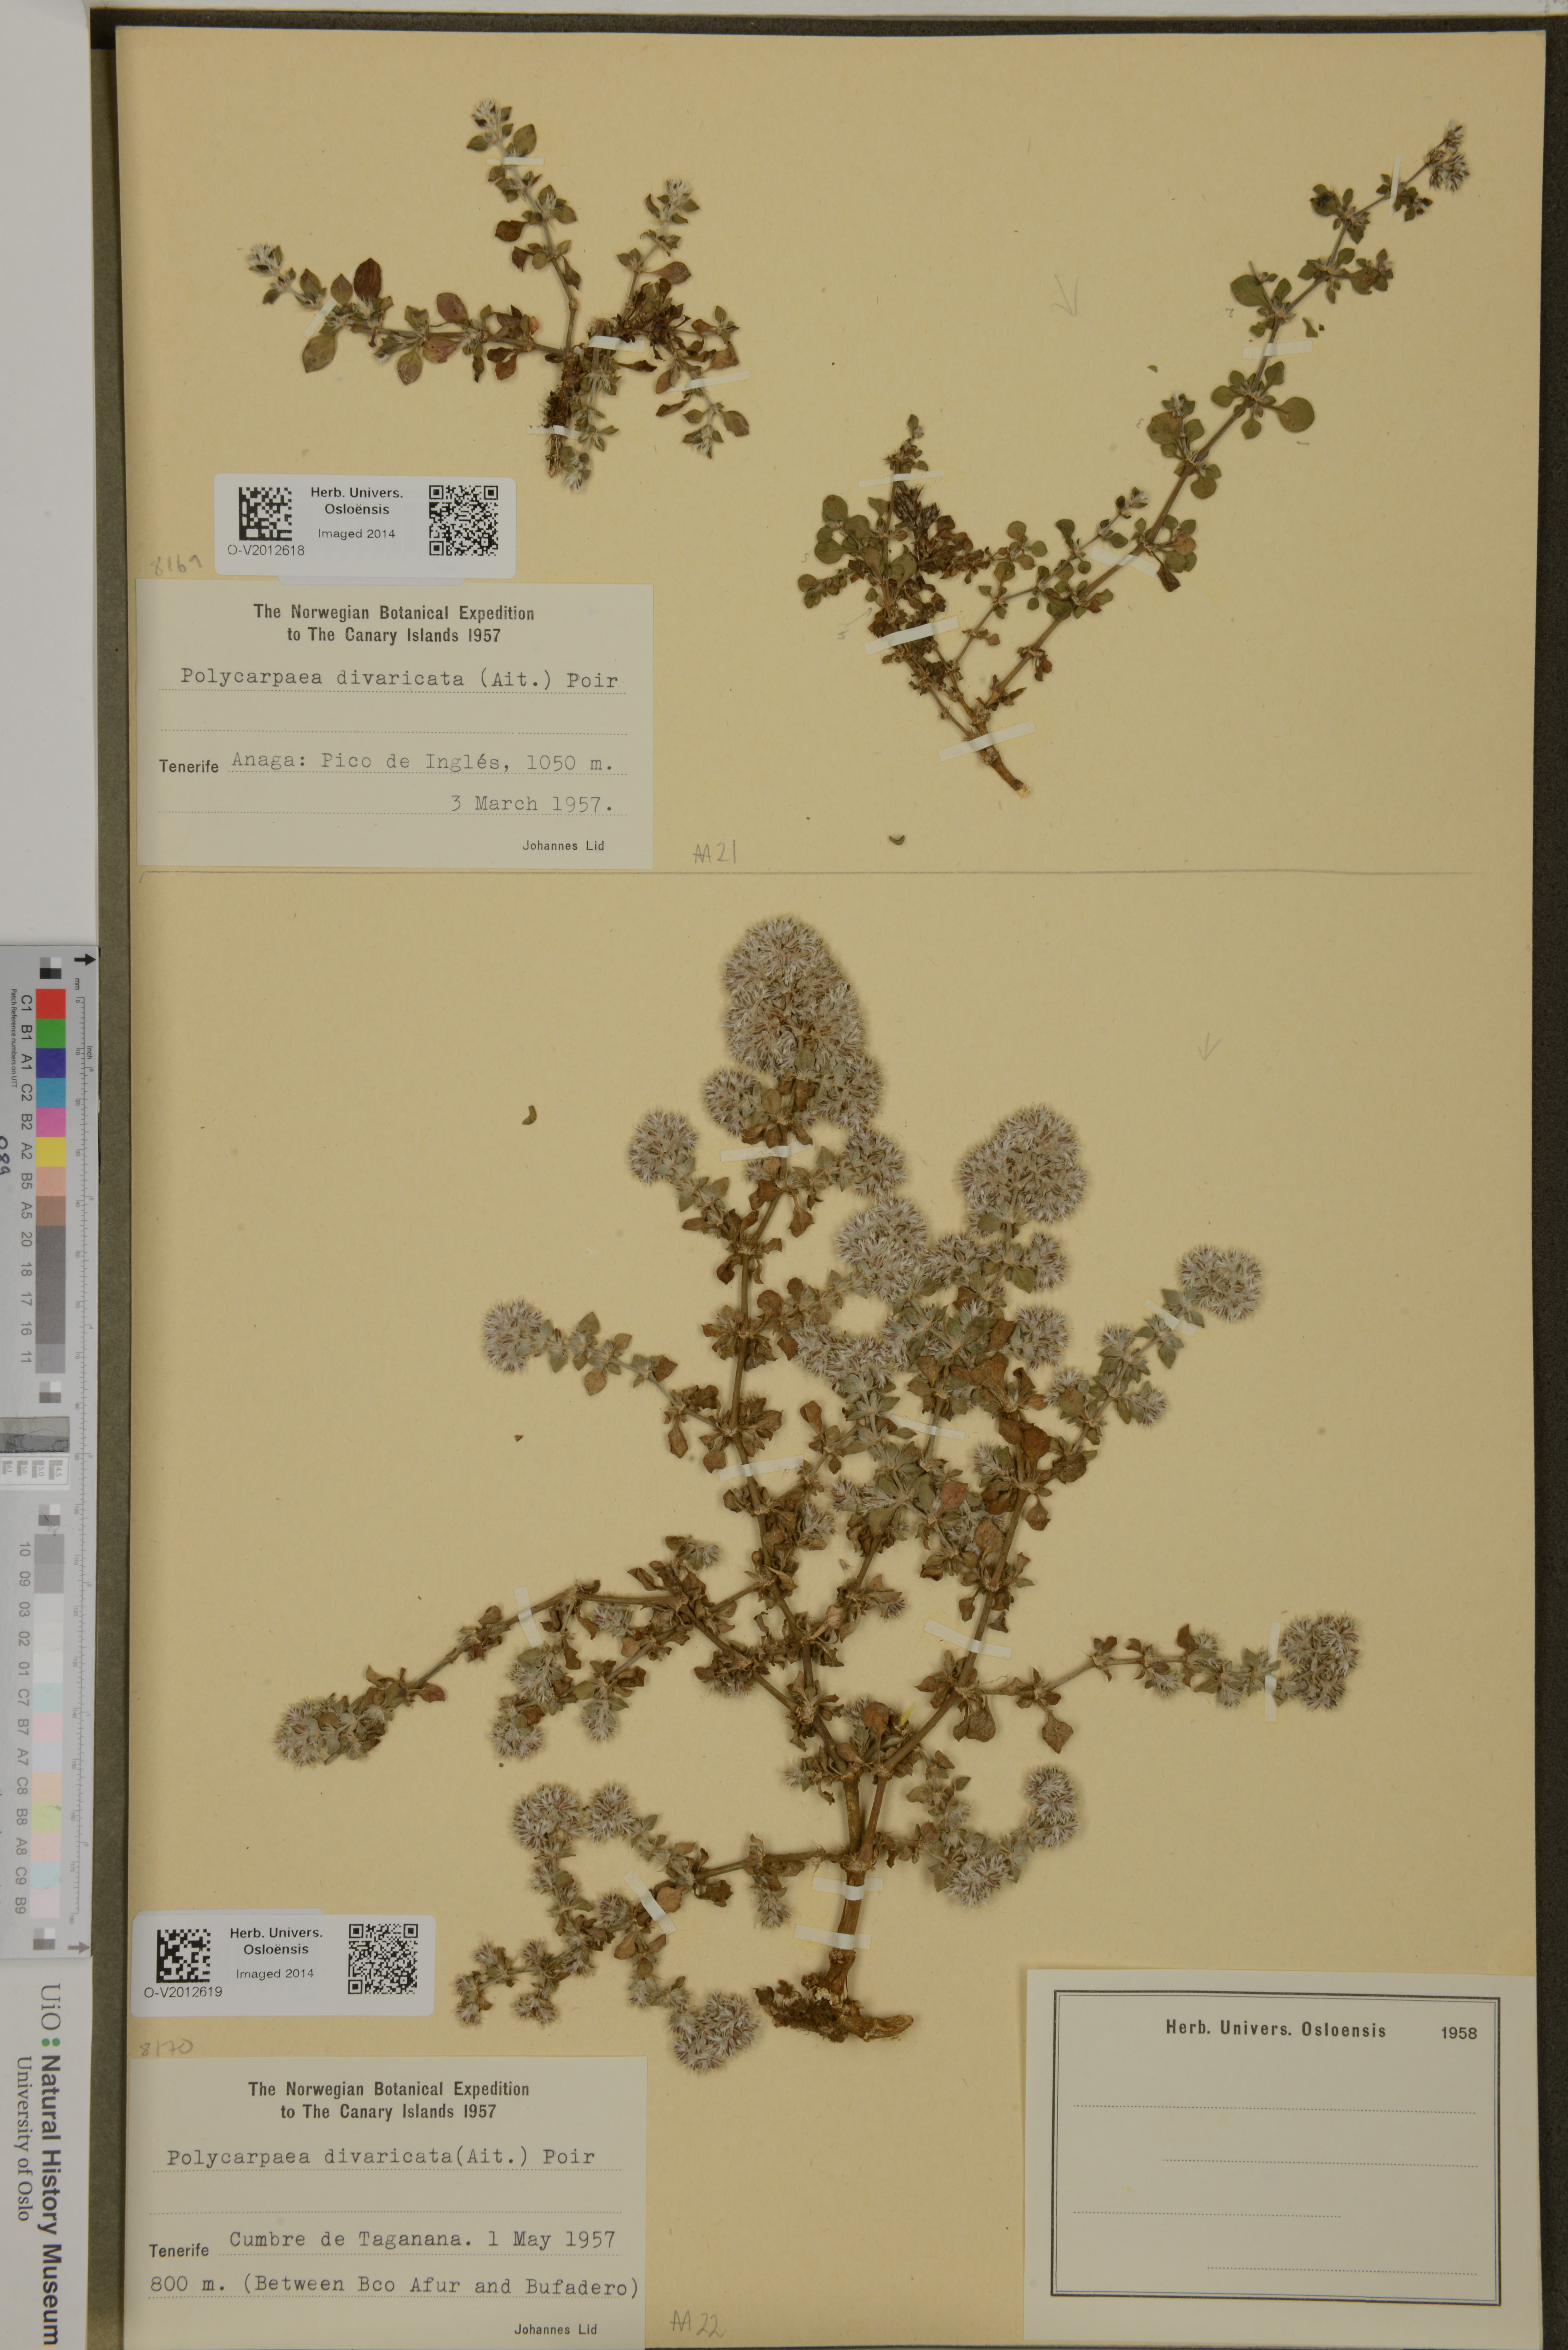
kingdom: Plantae
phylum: Tracheophyta
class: Magnoliopsida
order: Caryophyllales
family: Caryophyllaceae
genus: Polycarpaea
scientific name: Polycarpaea divaricata
